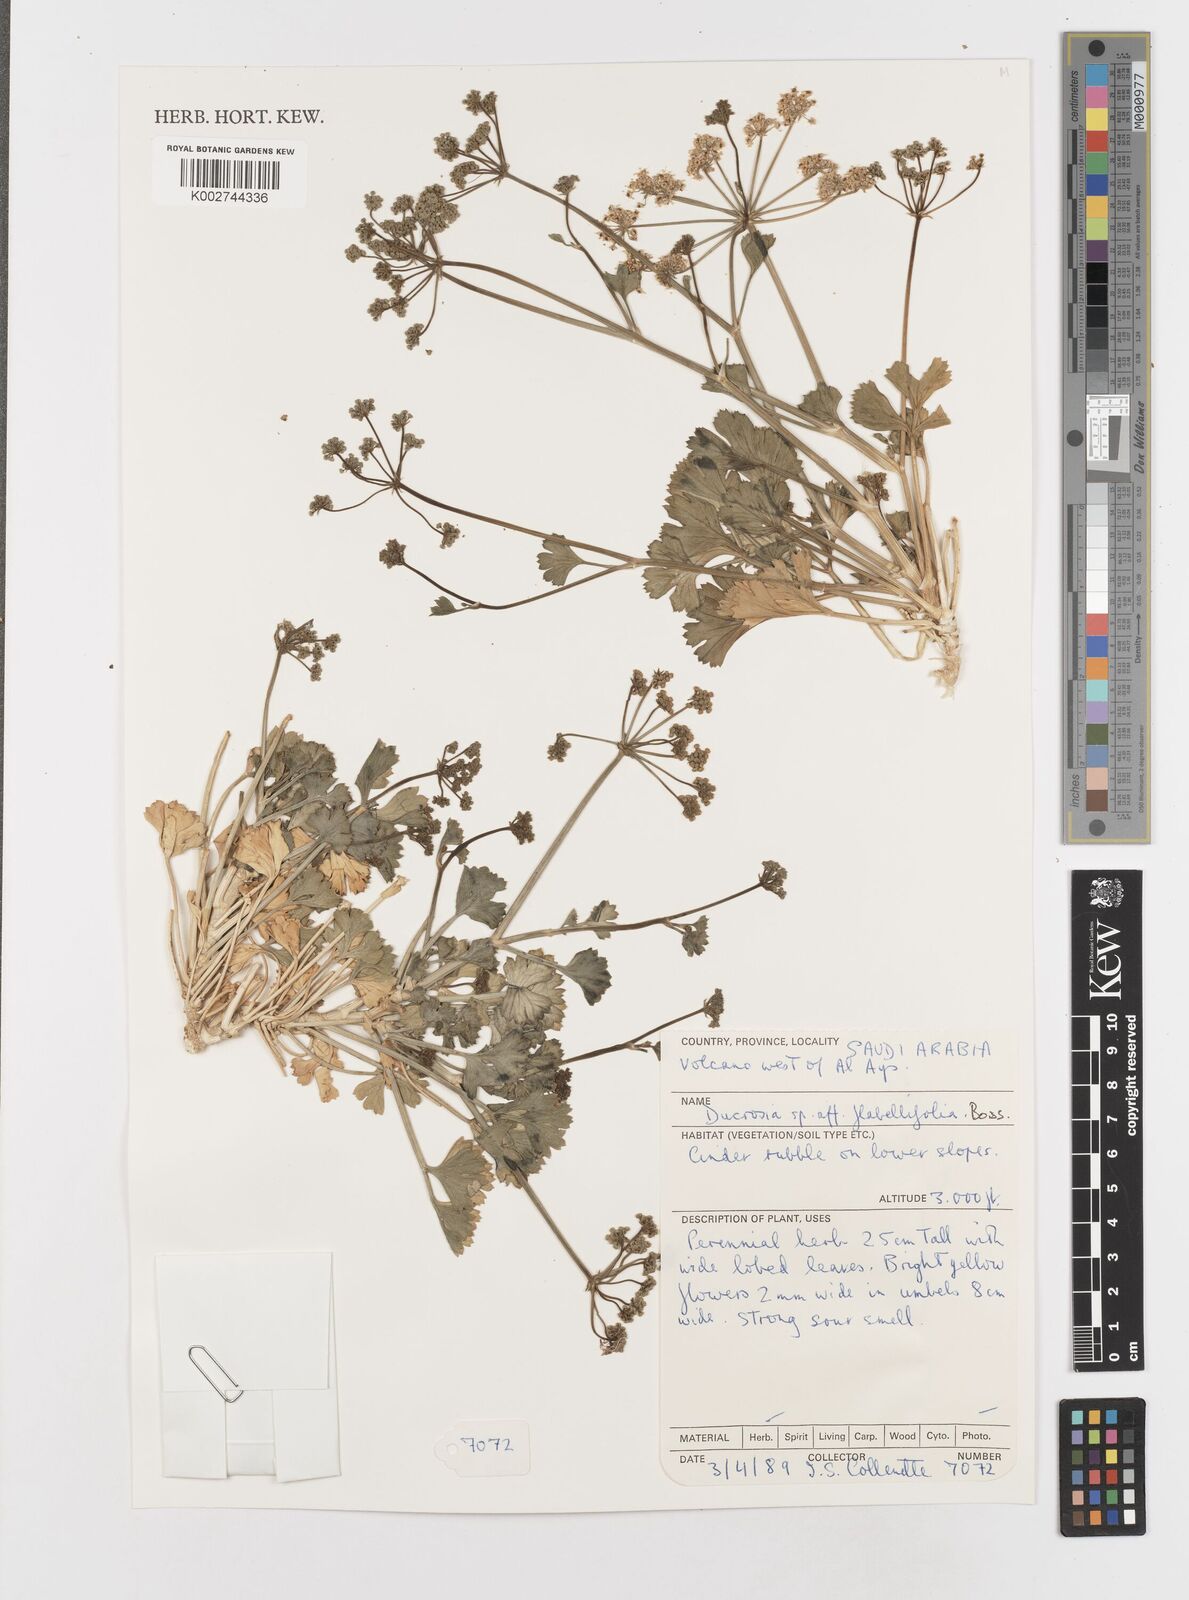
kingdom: Plantae
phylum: Tracheophyta
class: Magnoliopsida
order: Apiales
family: Apiaceae
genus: Ducrosia
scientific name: Ducrosia flabellifolia
